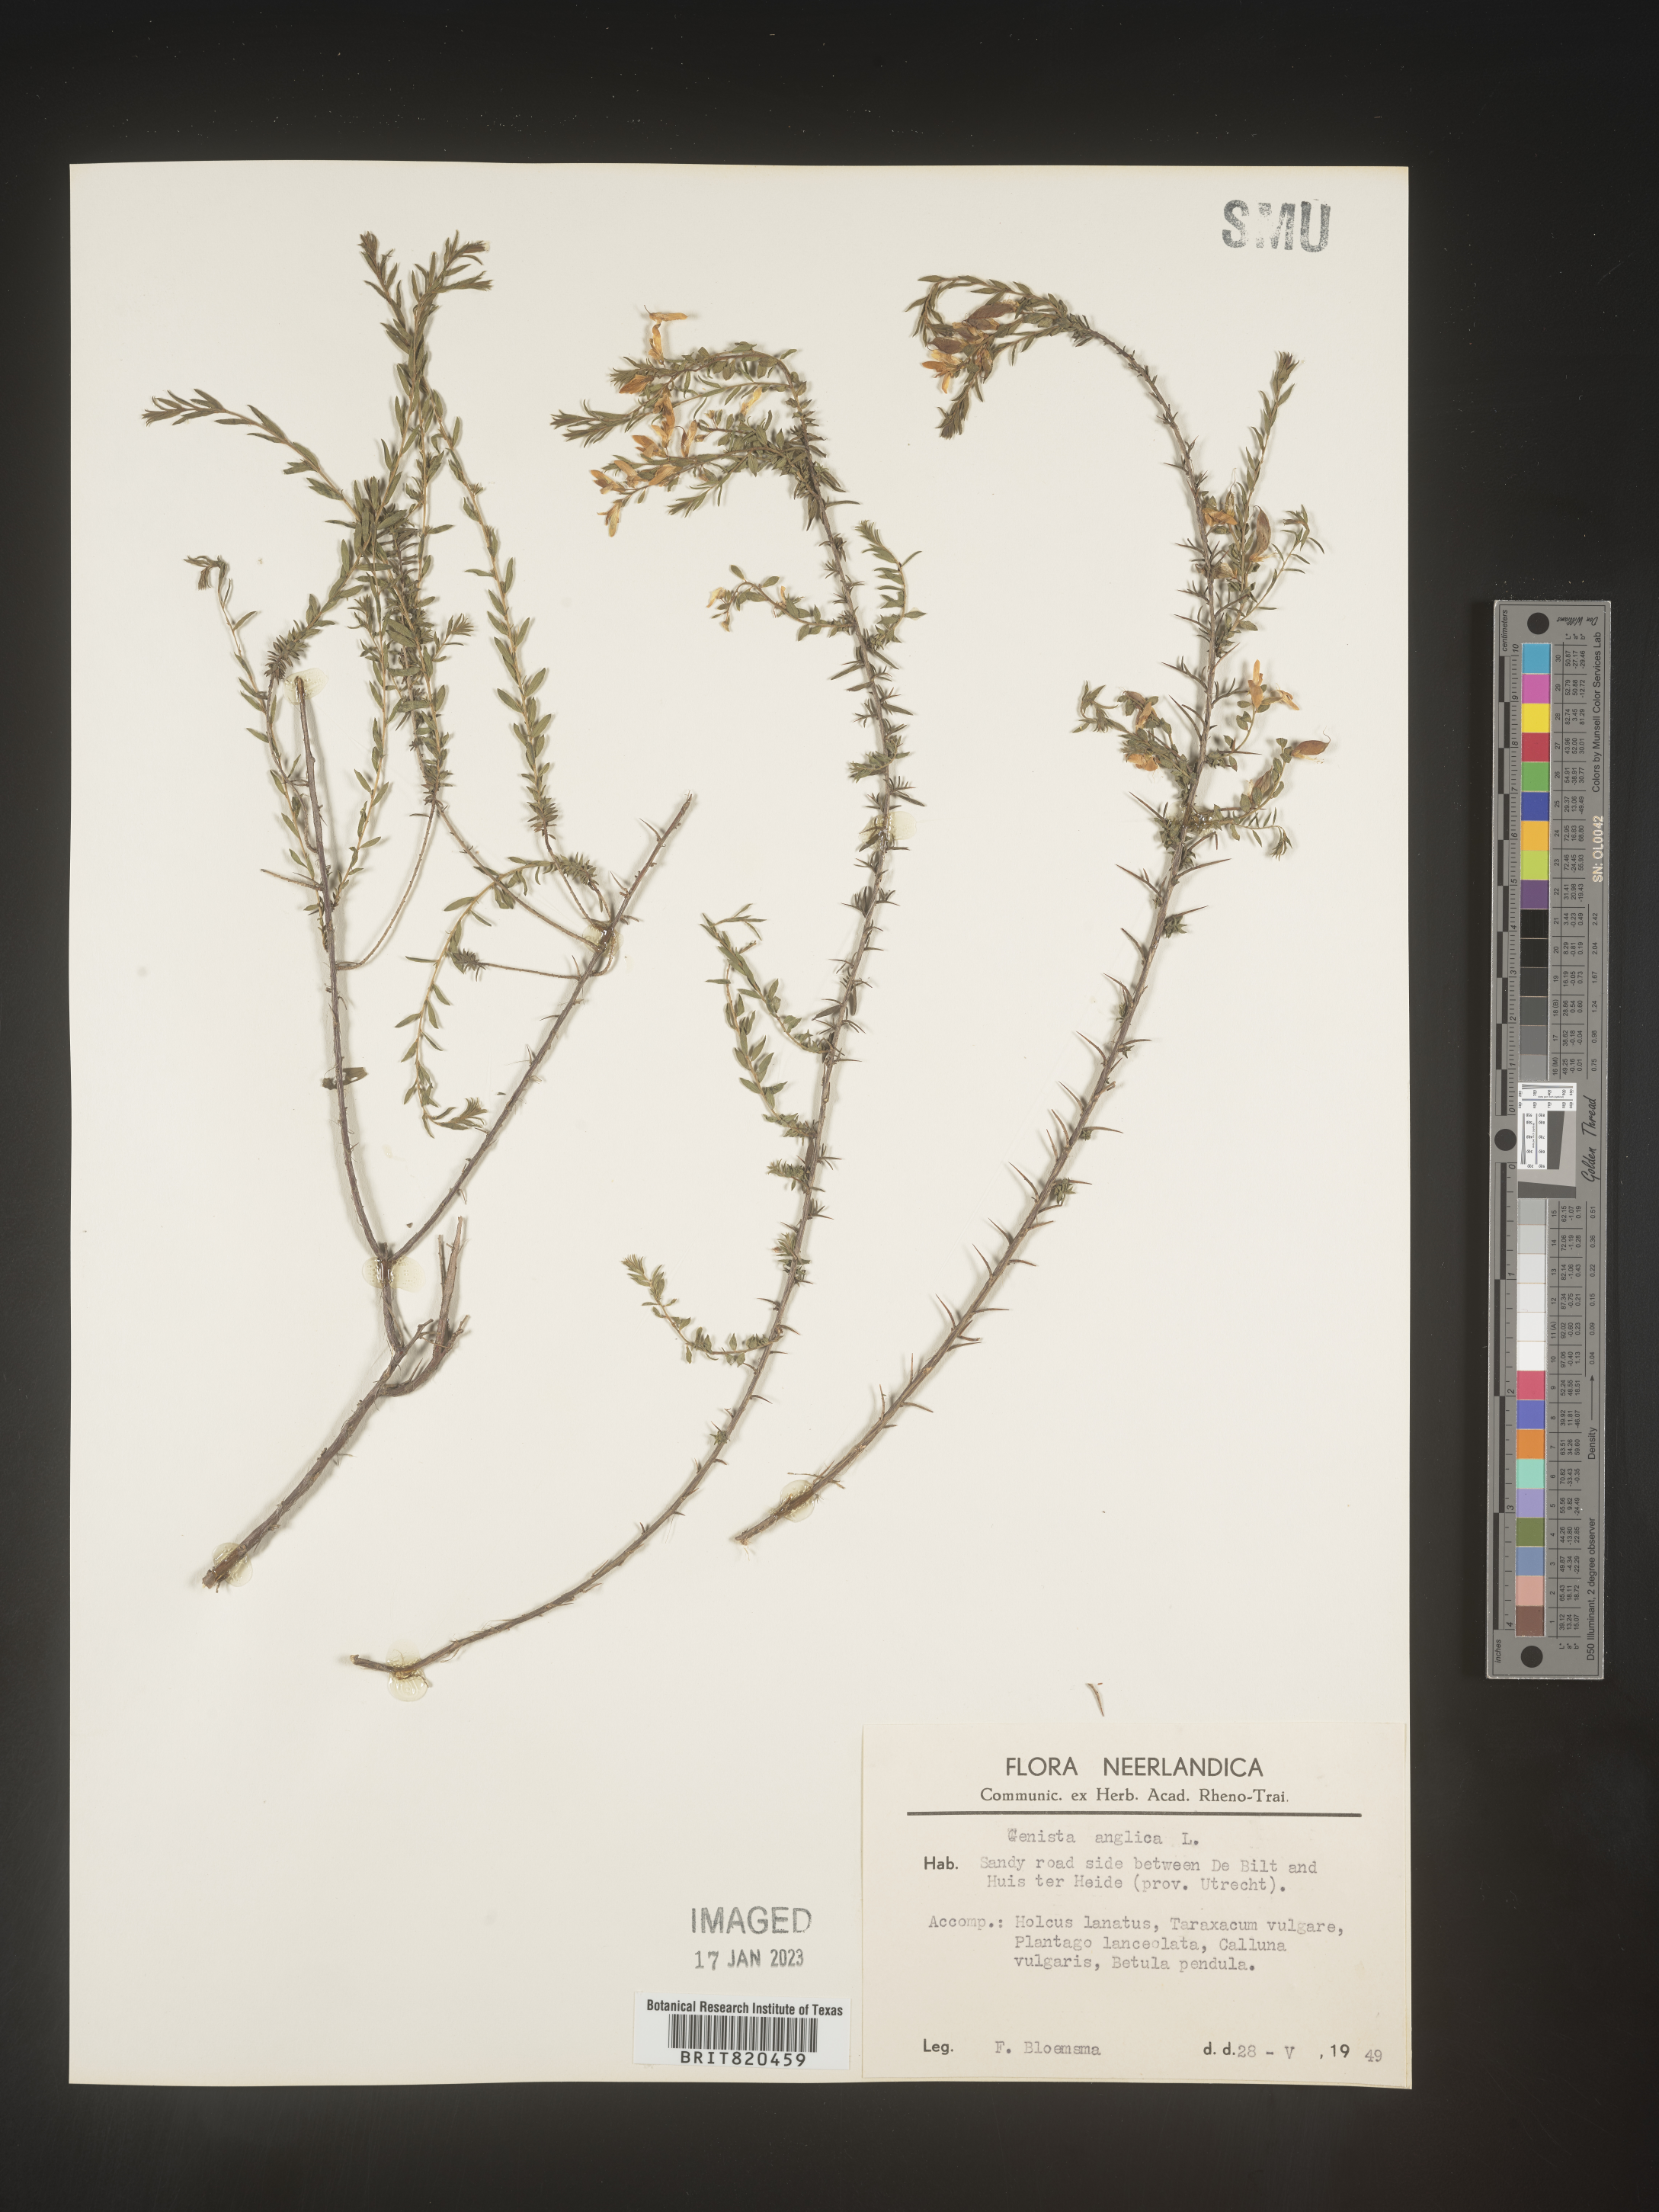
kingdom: Plantae
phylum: Tracheophyta
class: Magnoliopsida
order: Fabales
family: Fabaceae
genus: Genista
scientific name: Genista
